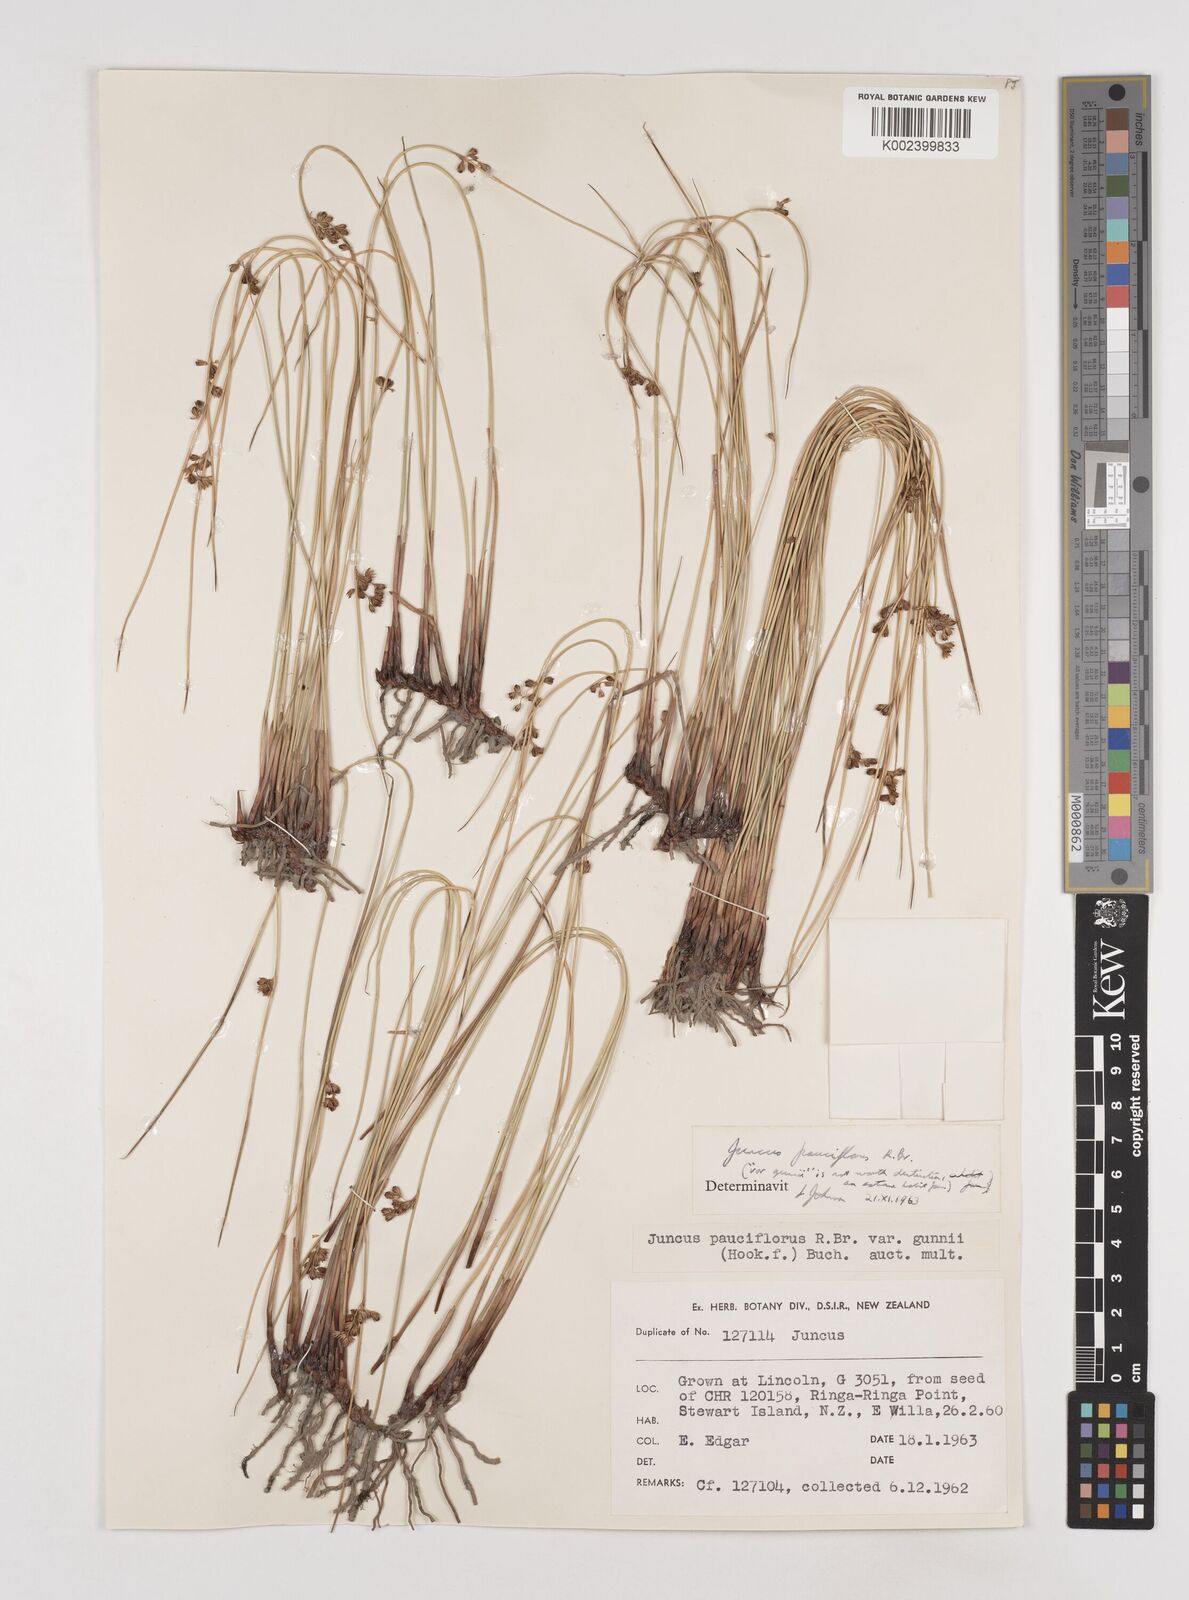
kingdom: Plantae
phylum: Tracheophyta
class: Liliopsida
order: Poales
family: Juncaceae
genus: Juncus
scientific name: Juncus pallidus
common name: Great soft-rush
